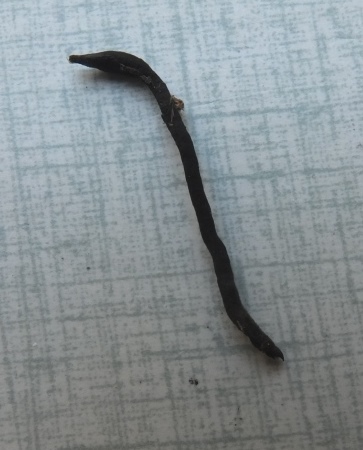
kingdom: Fungi
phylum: Ascomycota
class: Geoglossomycetes
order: Geoglossales
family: Geoglossaceae
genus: Geoglossum
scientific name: Geoglossum glabrum
